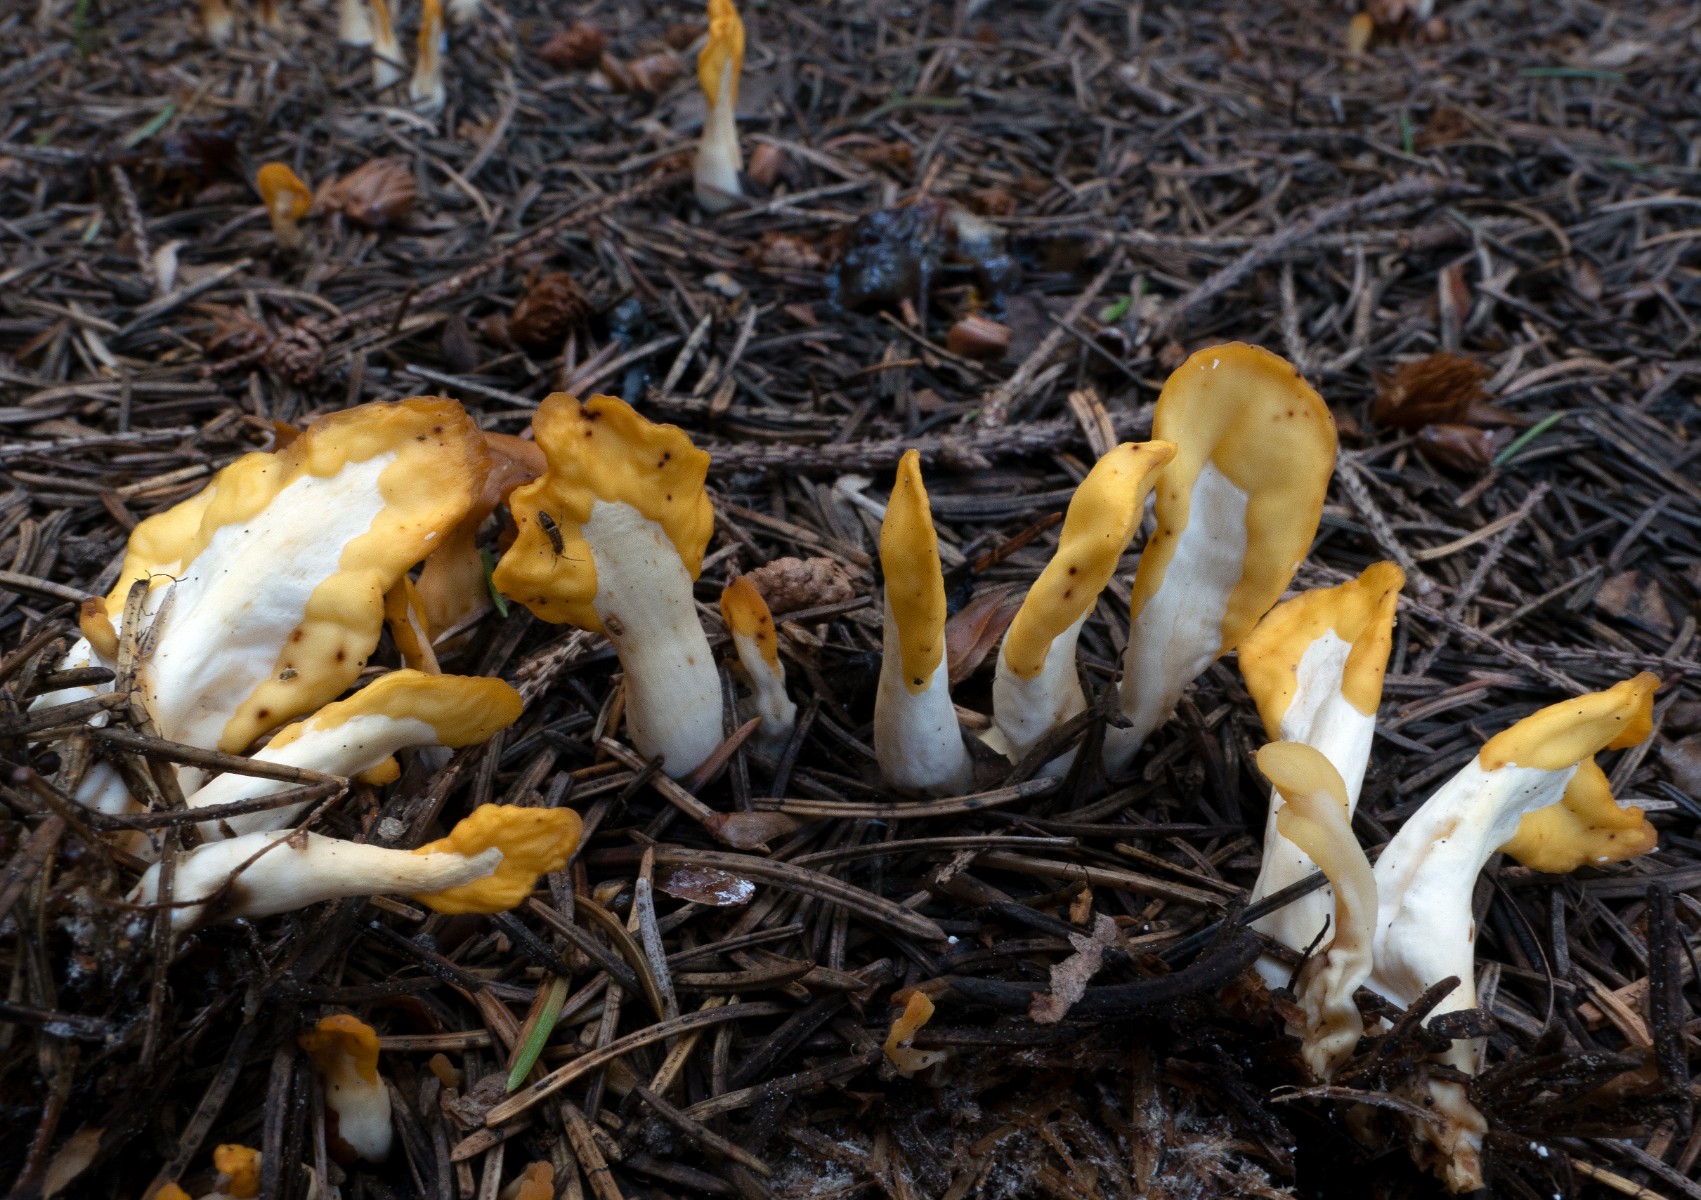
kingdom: Fungi
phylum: Ascomycota
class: Leotiomycetes
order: Rhytismatales
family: Cudoniaceae
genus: Spathularia
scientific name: Spathularia flavida
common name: gul spatelsvamp
